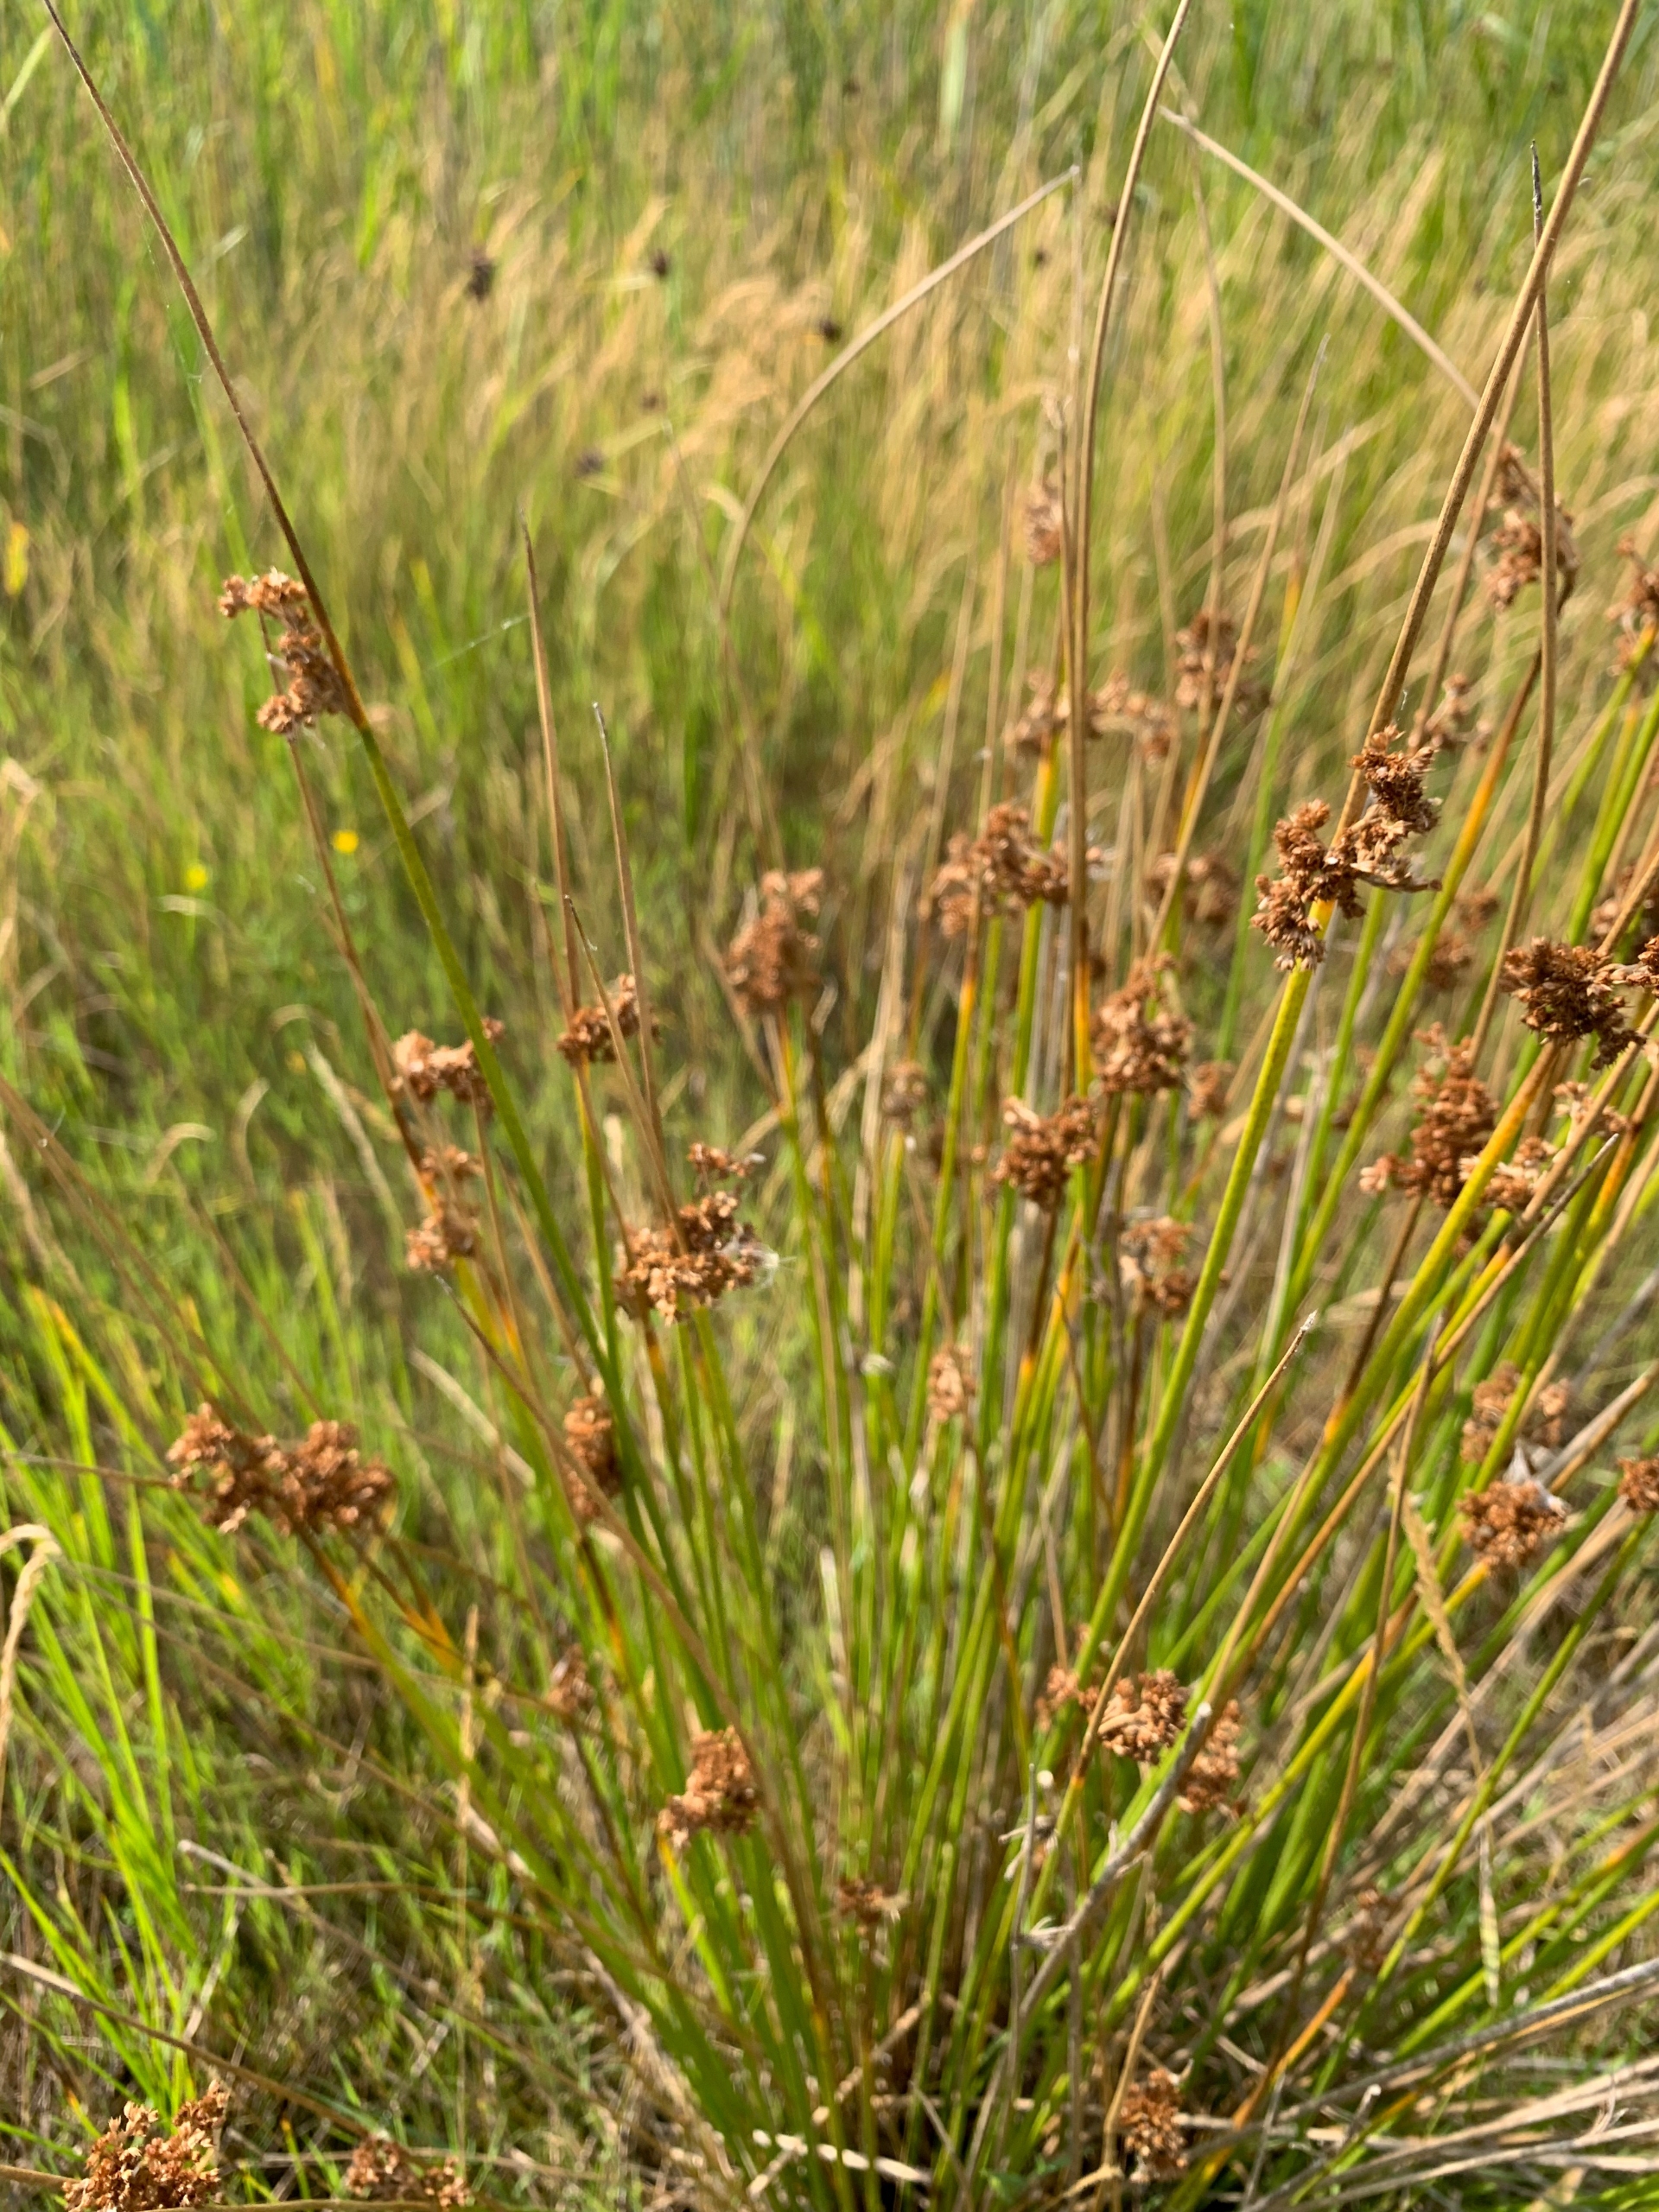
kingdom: Plantae
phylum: Tracheophyta
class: Liliopsida
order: Poales
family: Juncaceae
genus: Juncus
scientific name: Juncus effusus
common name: Lyse-siv
